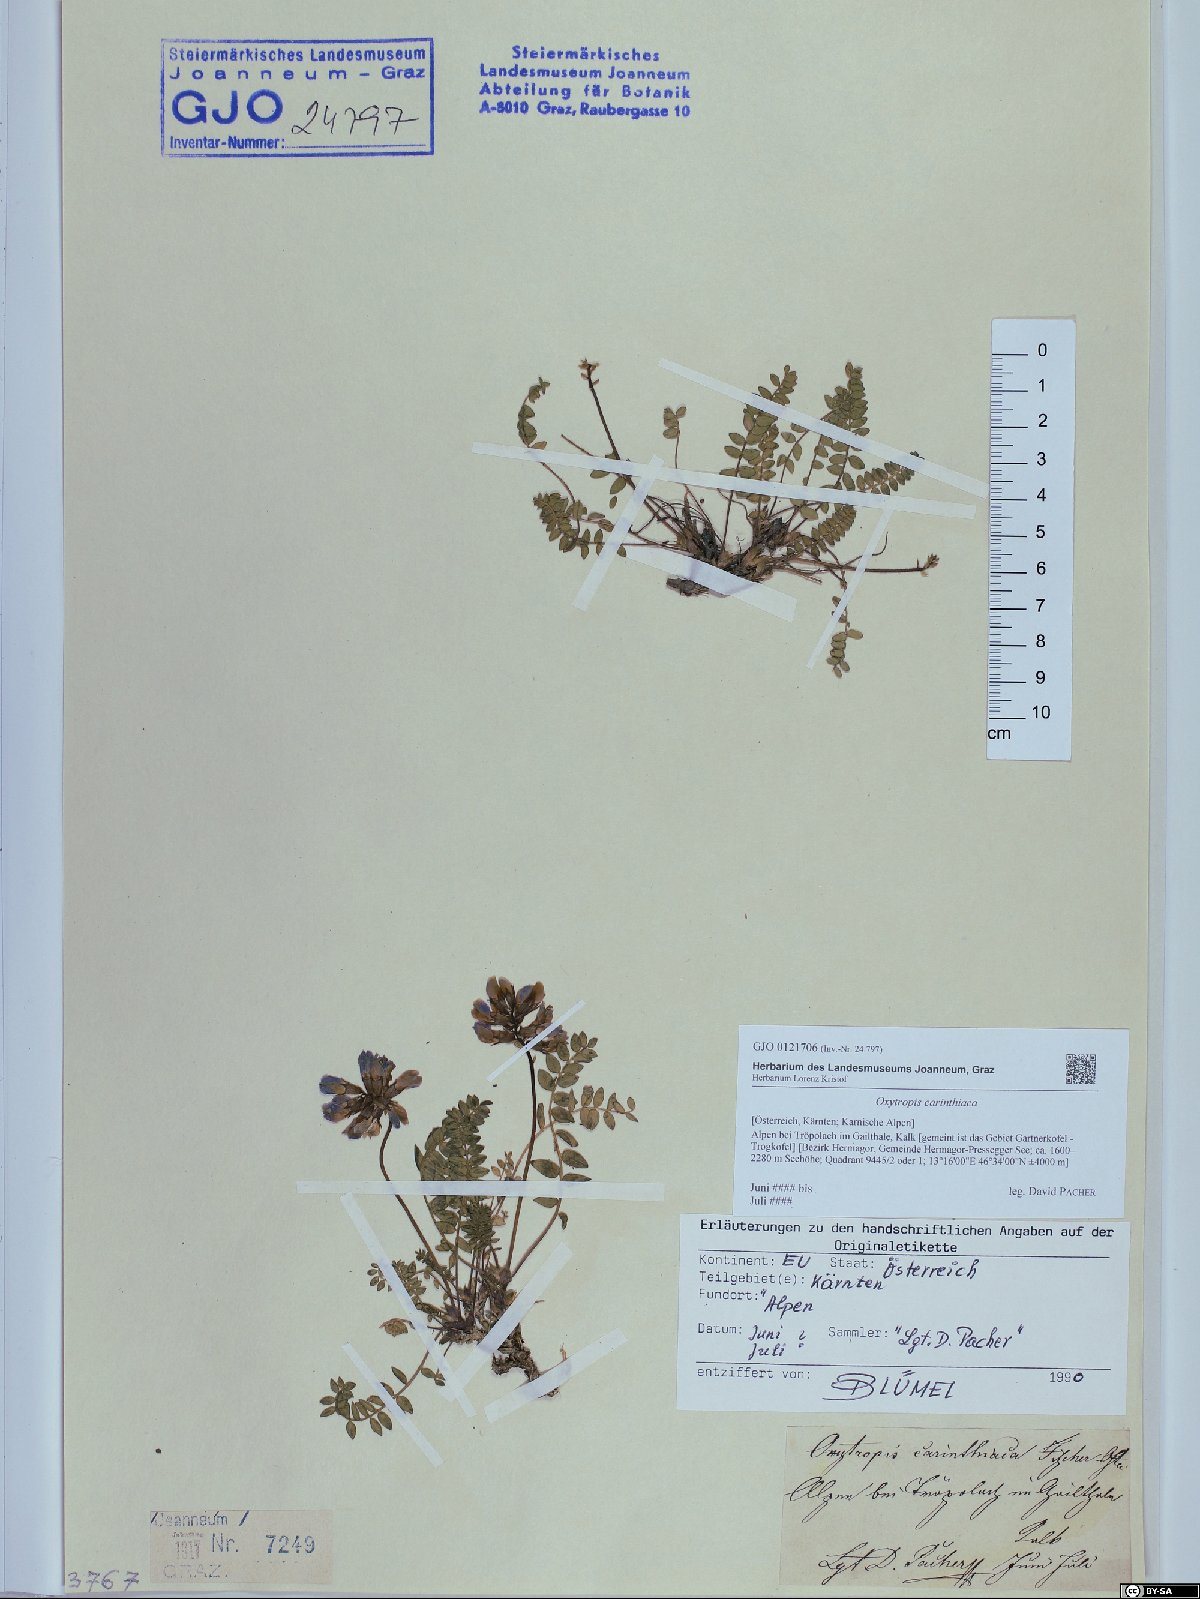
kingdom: Plantae
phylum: Tracheophyta
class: Magnoliopsida
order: Fabales
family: Fabaceae
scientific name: Fabaceae
